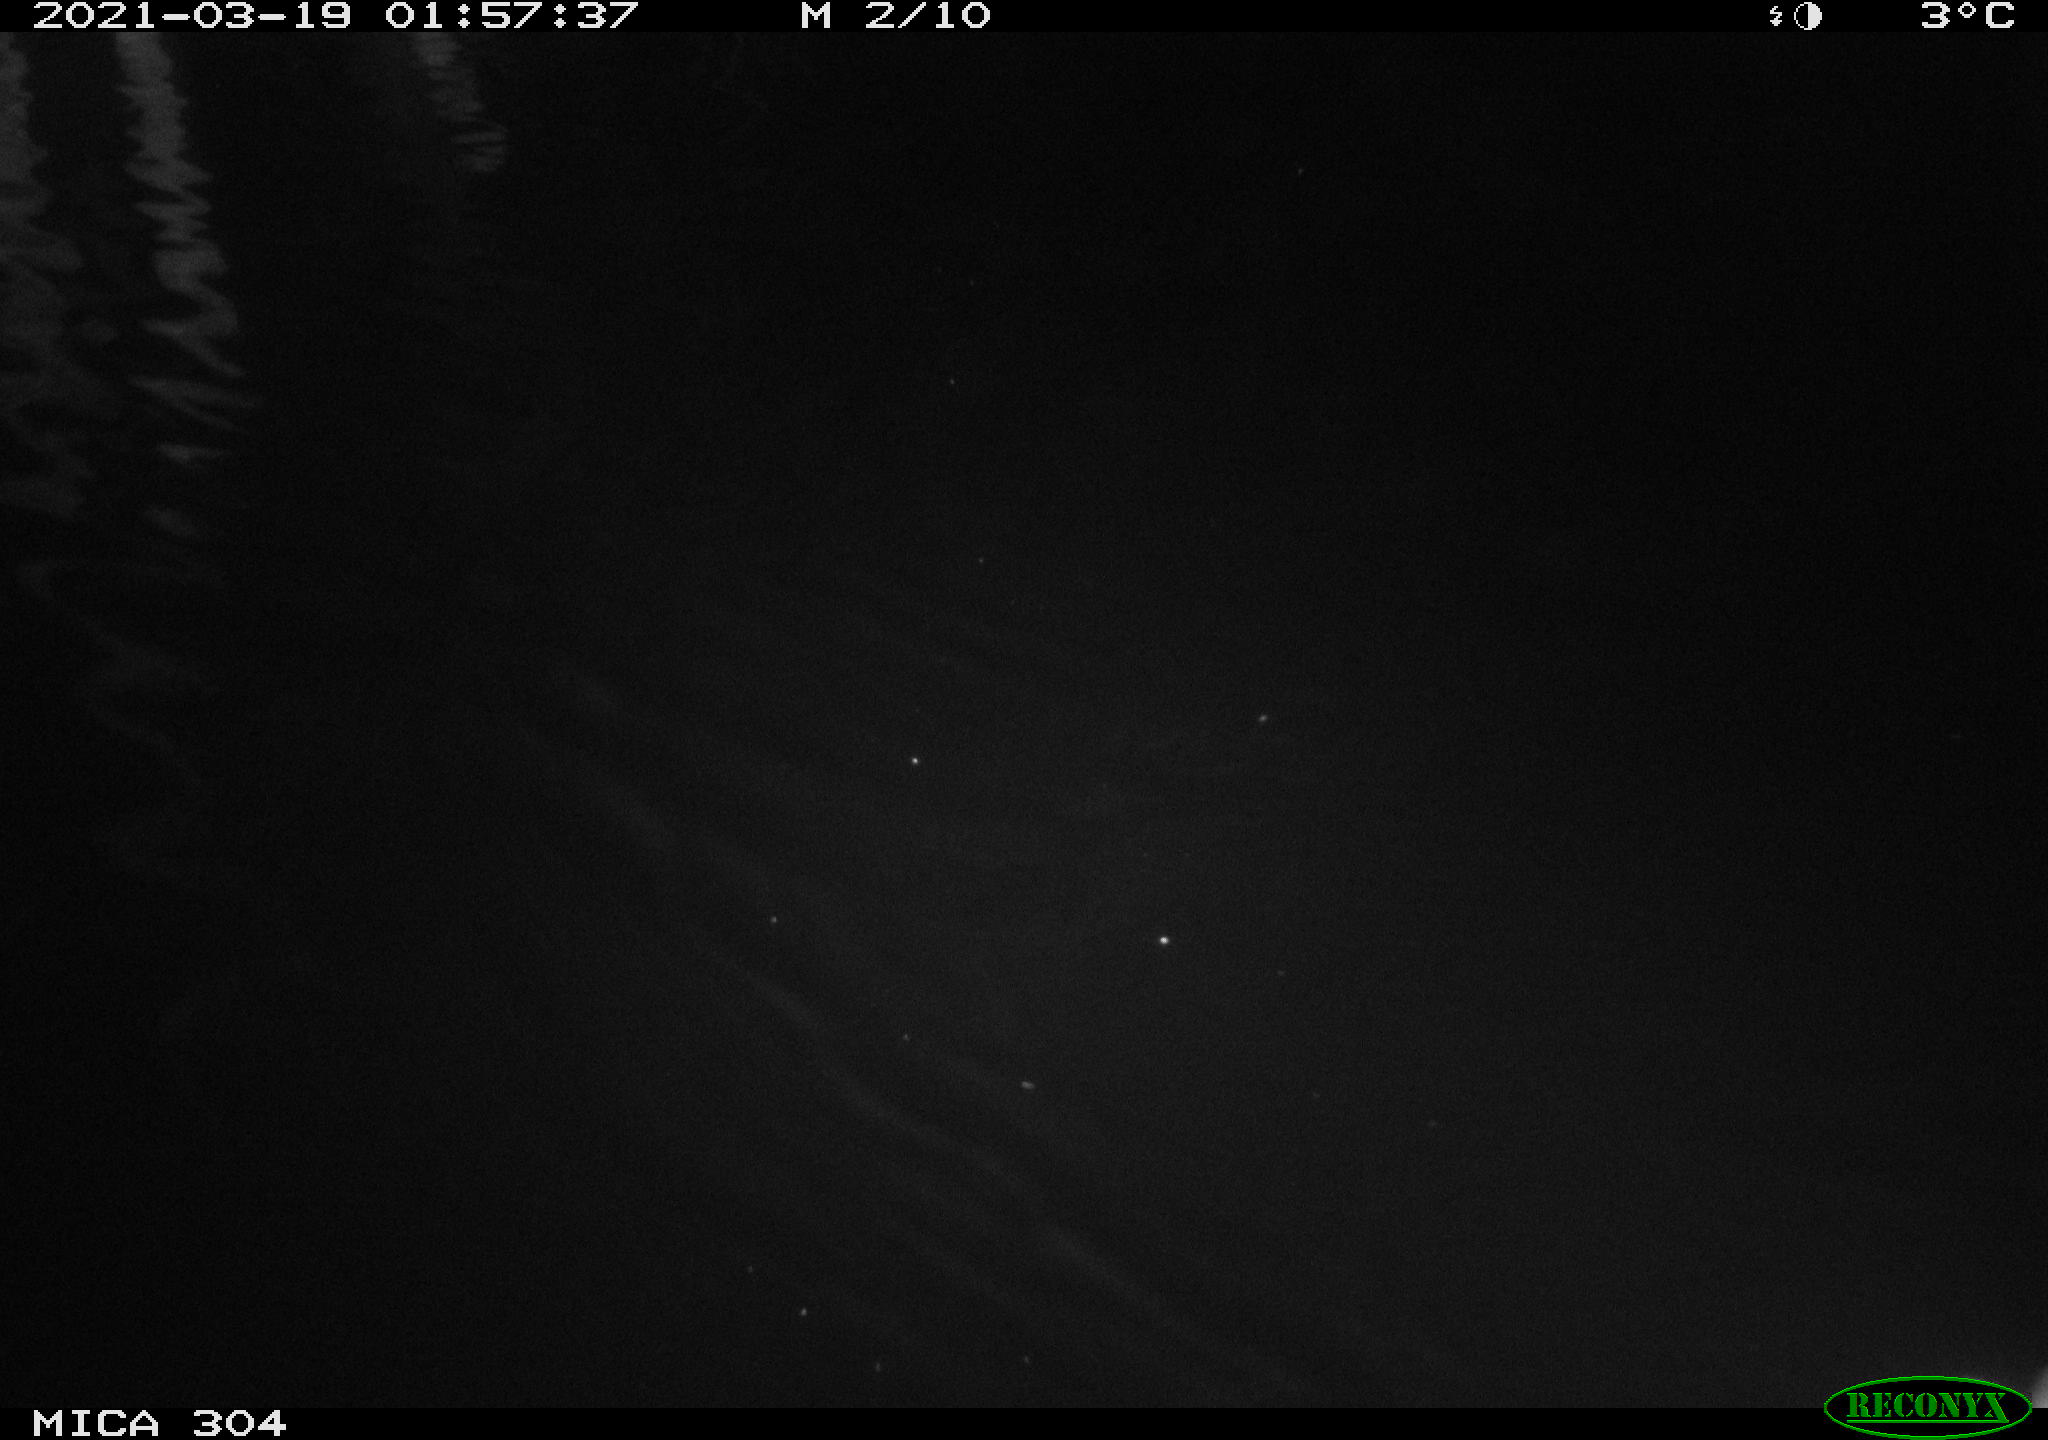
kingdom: Animalia
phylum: Chordata
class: Aves
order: Anseriformes
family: Anatidae
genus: Anas
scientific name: Anas
